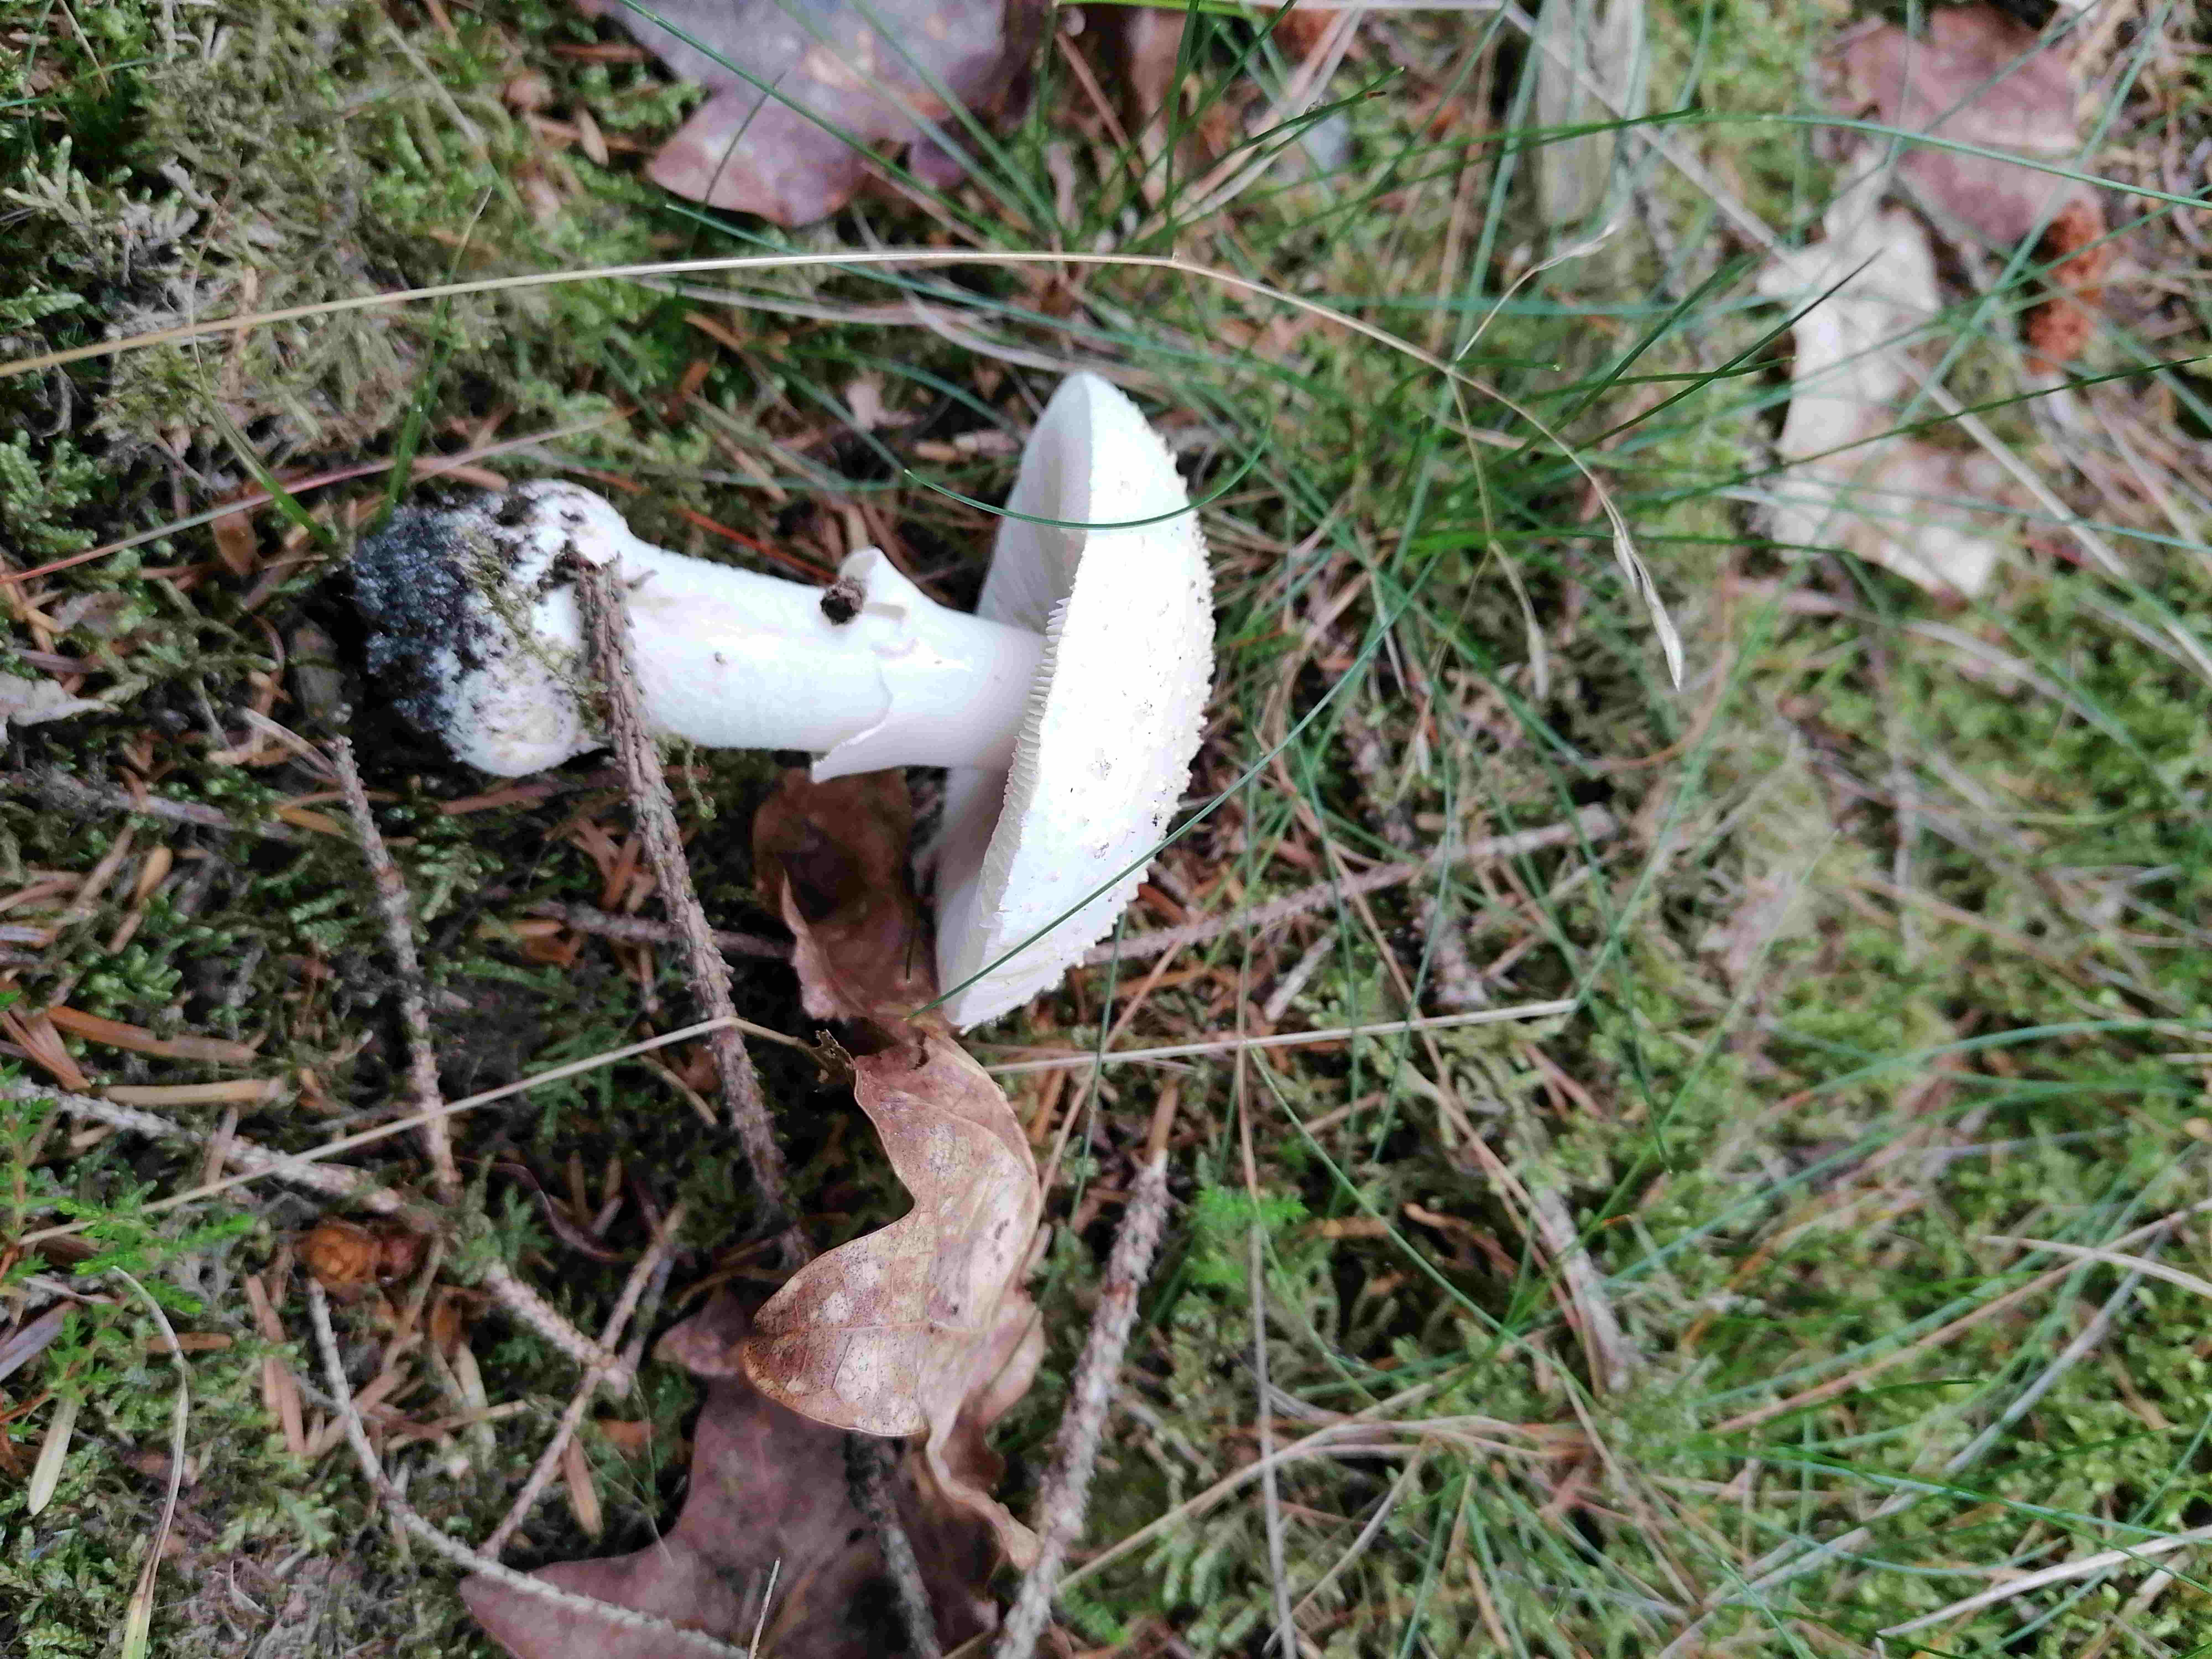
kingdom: Fungi
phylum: Basidiomycota
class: Agaricomycetes
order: Agaricales
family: Amanitaceae
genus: Amanita
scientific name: Amanita
